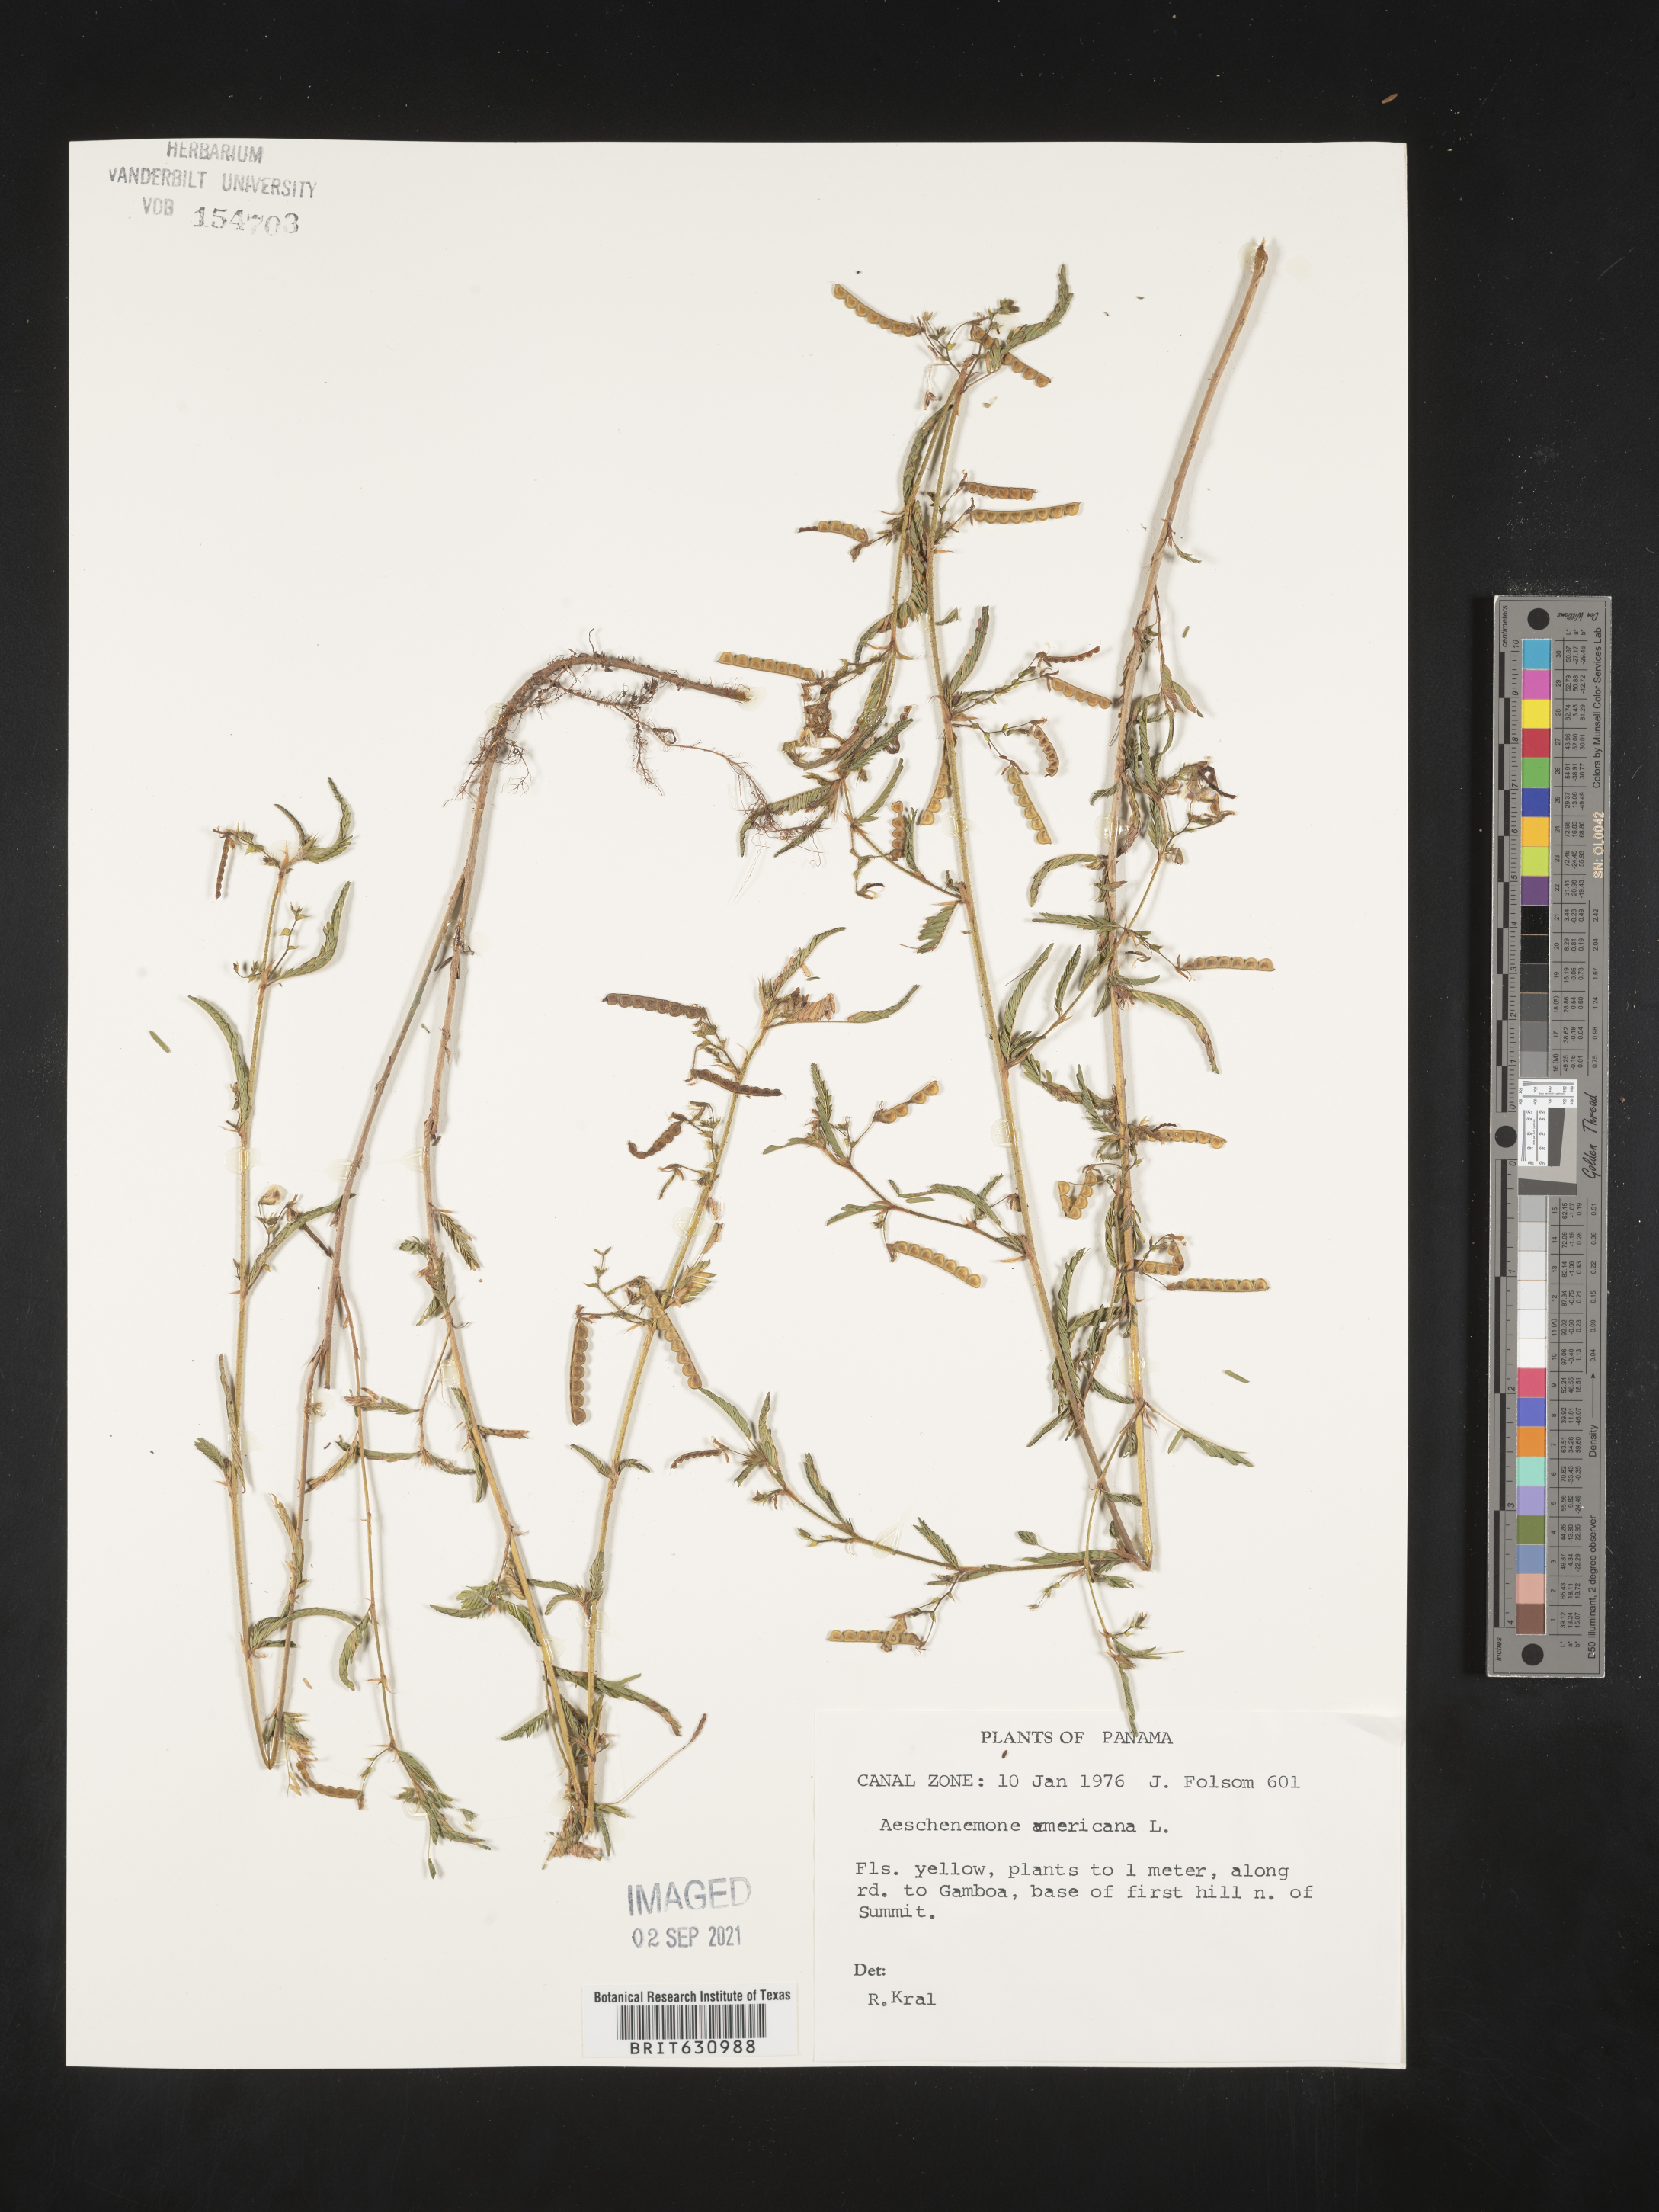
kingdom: Plantae
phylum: Tracheophyta
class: Magnoliopsida
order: Fabales
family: Fabaceae
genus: Aeschynomene
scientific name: Aeschynomene
